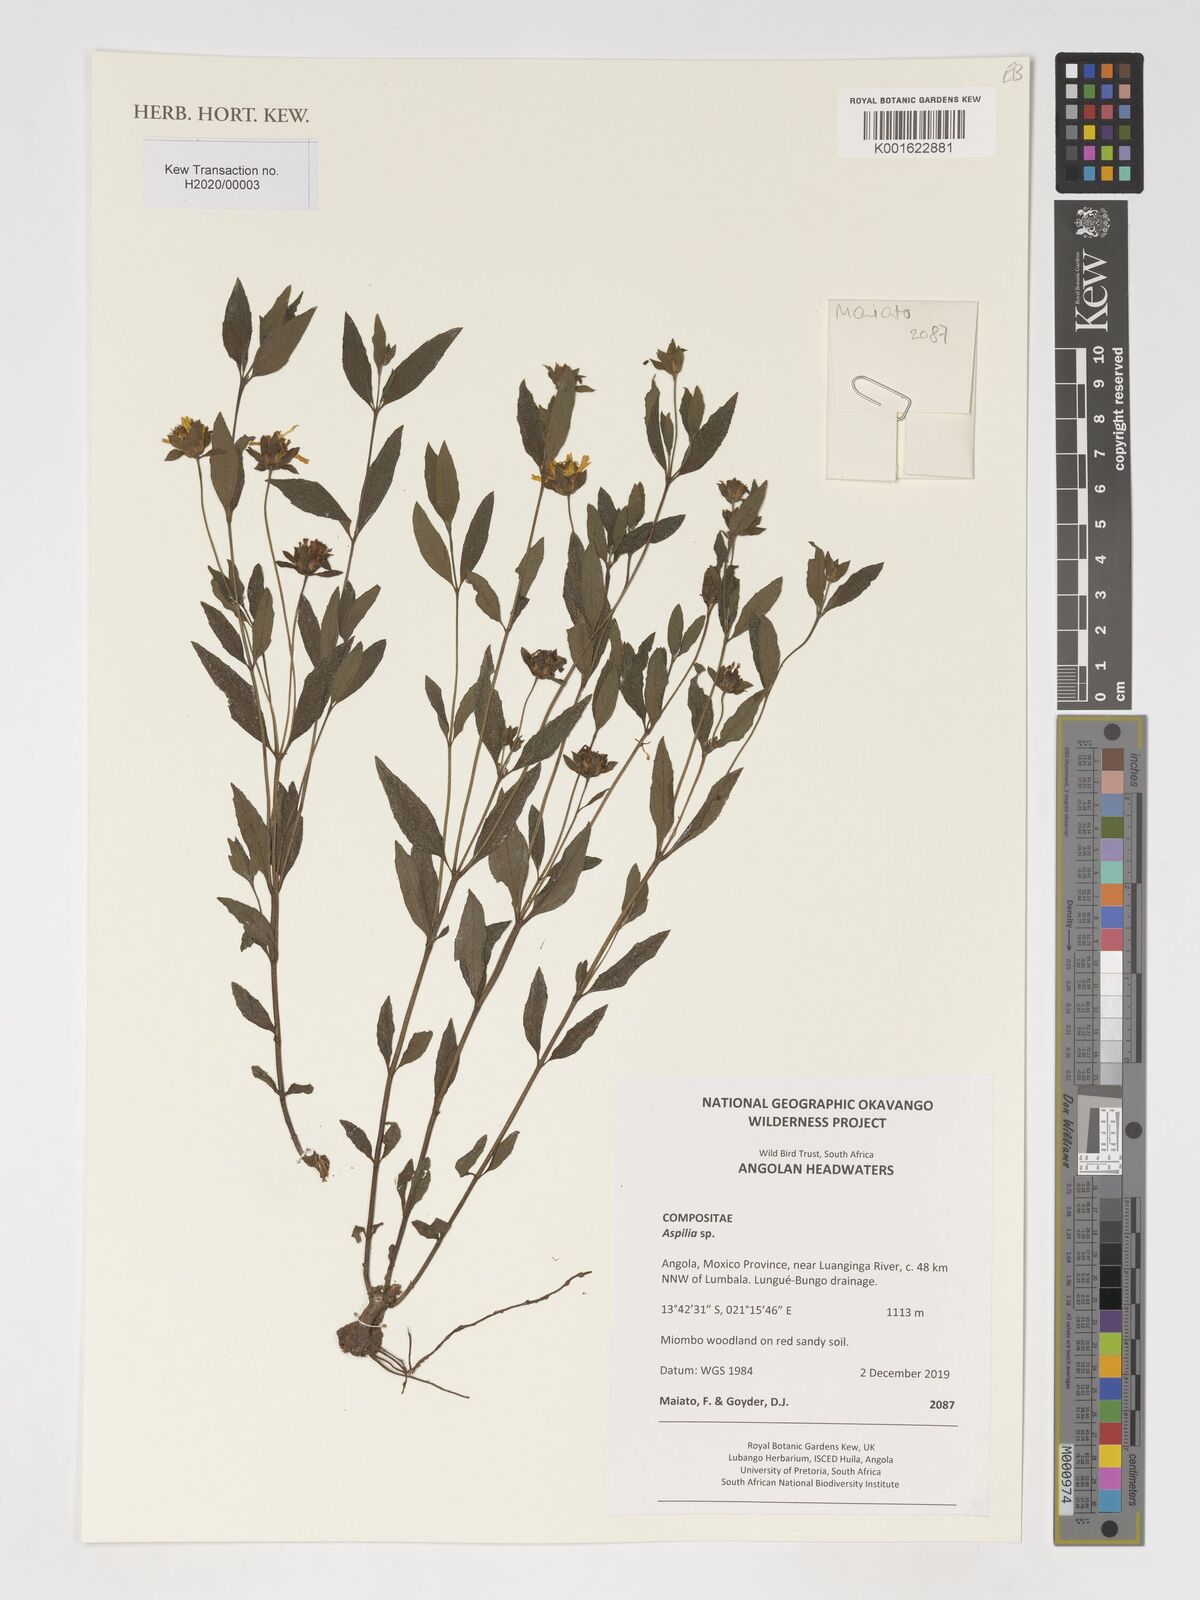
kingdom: Plantae
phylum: Tracheophyta
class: Magnoliopsida
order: Asterales
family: Asteraceae
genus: Aspilia
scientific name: Aspilia
